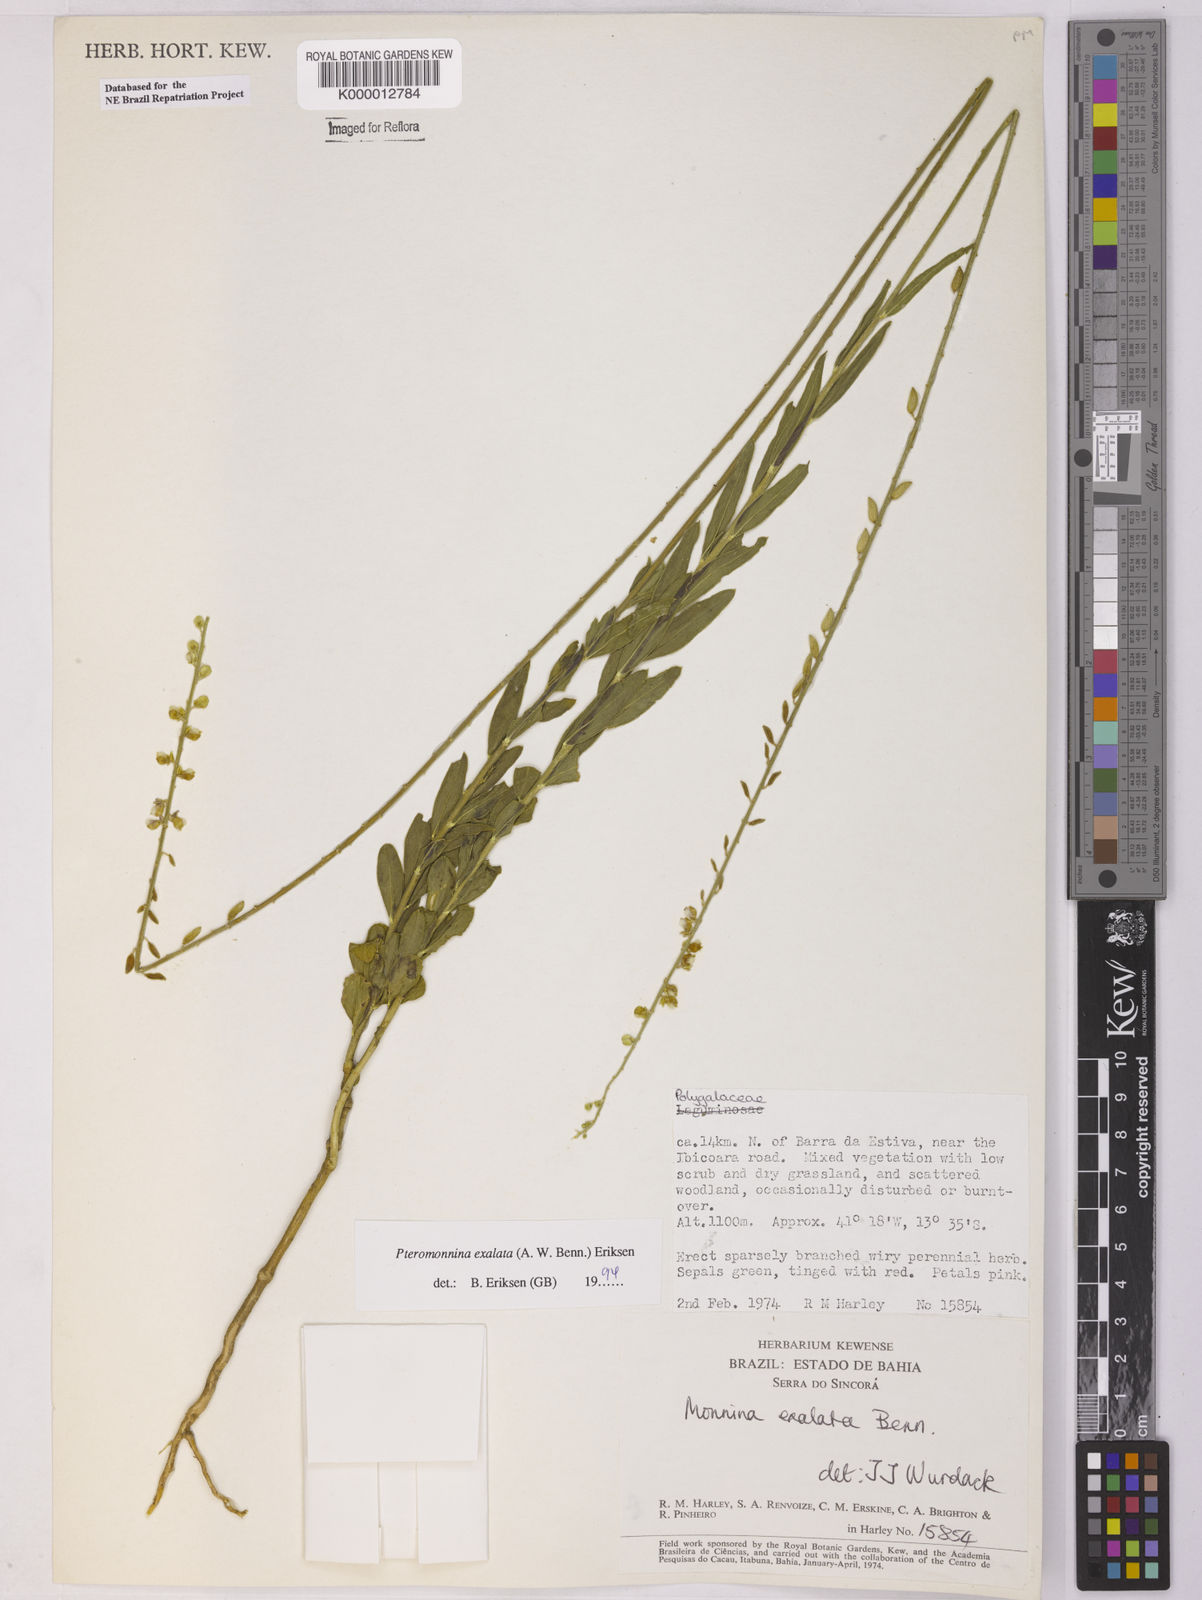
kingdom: Plantae
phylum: Tracheophyta
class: Magnoliopsida
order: Fabales
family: Polygalaceae
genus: Monnina
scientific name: Monnina exalata
